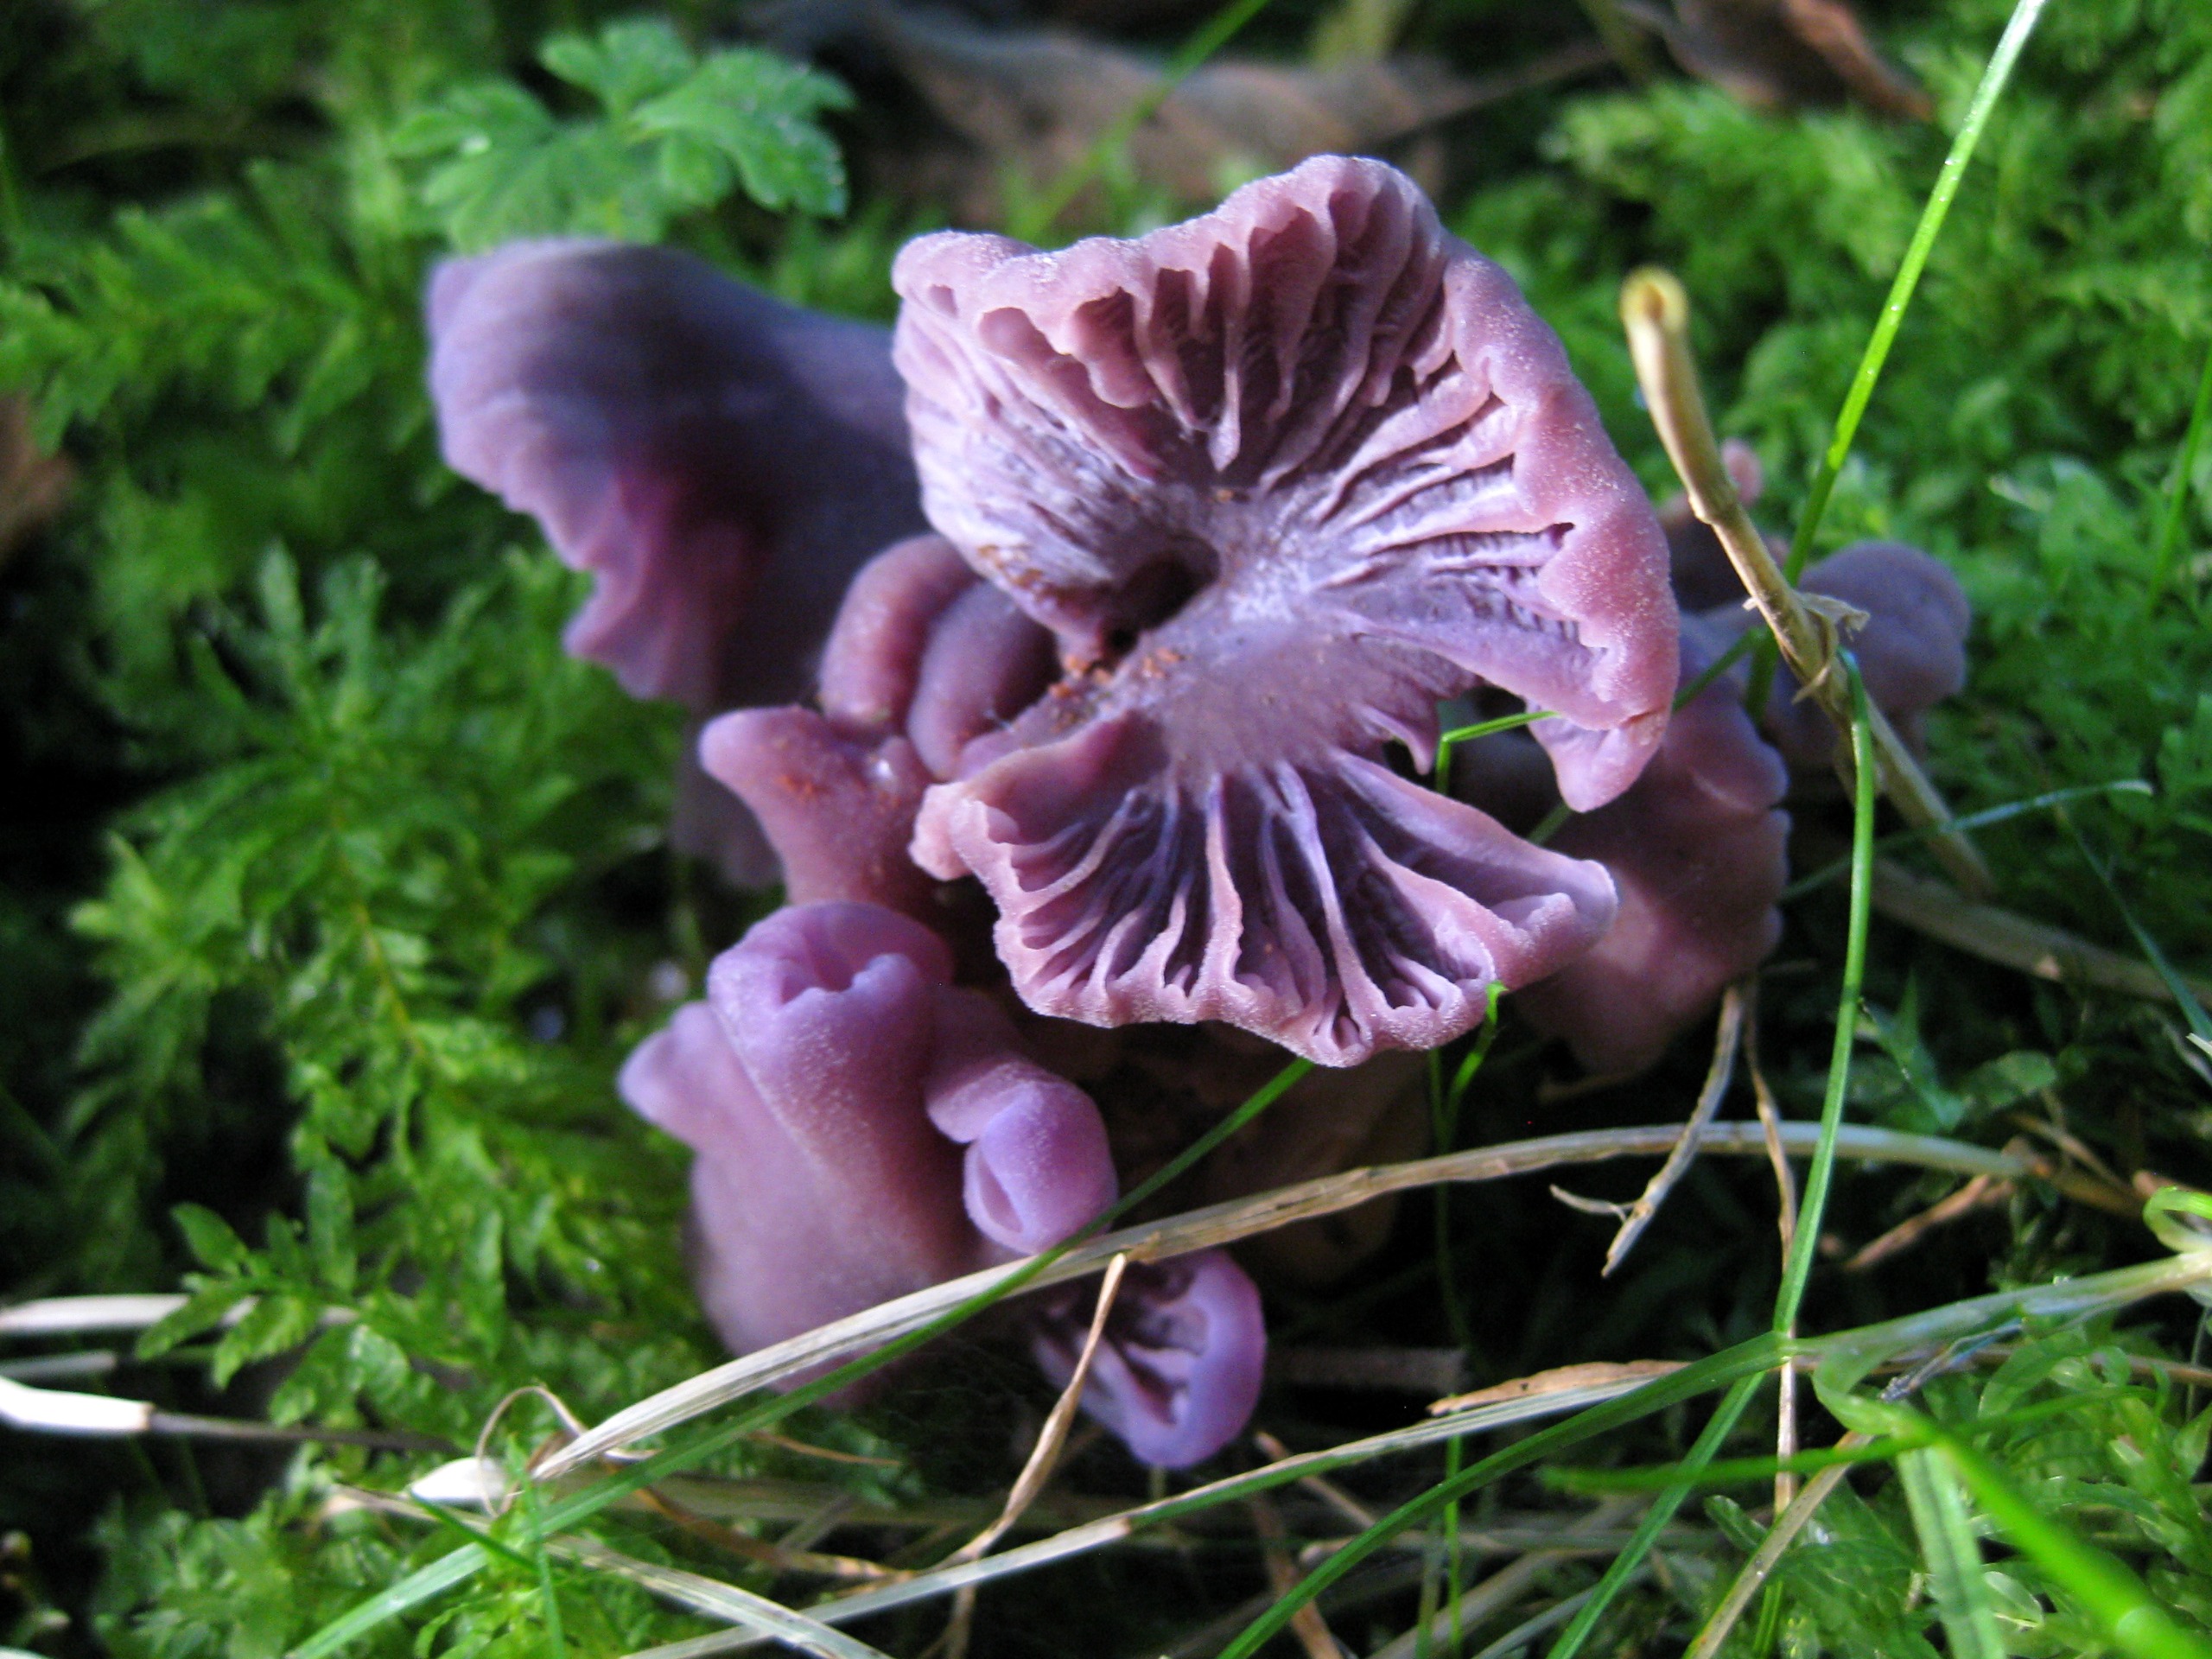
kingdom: Fungi
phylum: Basidiomycota
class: Agaricomycetes
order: Agaricales
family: Hydnangiaceae
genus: Laccaria
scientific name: Laccaria amethystina
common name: Violet ametysthat
